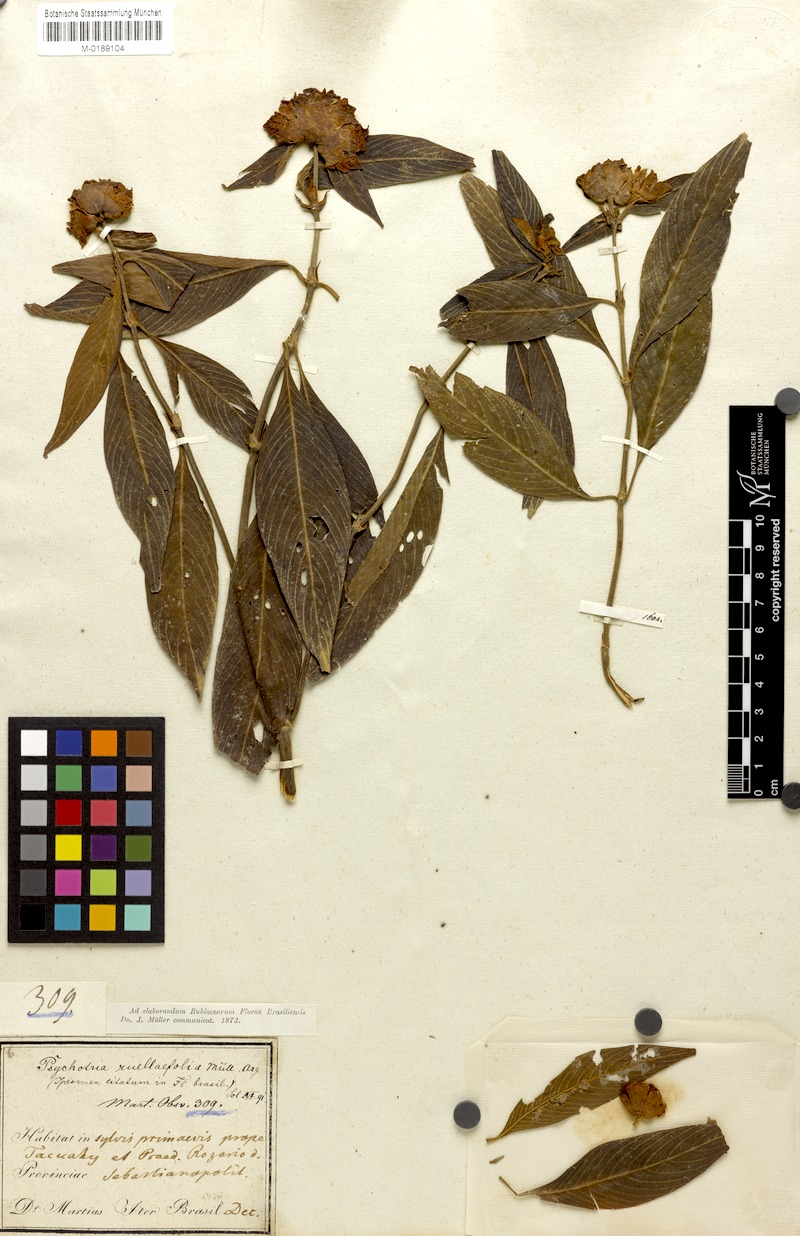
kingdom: Plantae
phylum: Tracheophyta
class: Magnoliopsida
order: Gentianales
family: Rubiaceae
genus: Palicourea
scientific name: Palicourea ruelliifolia
